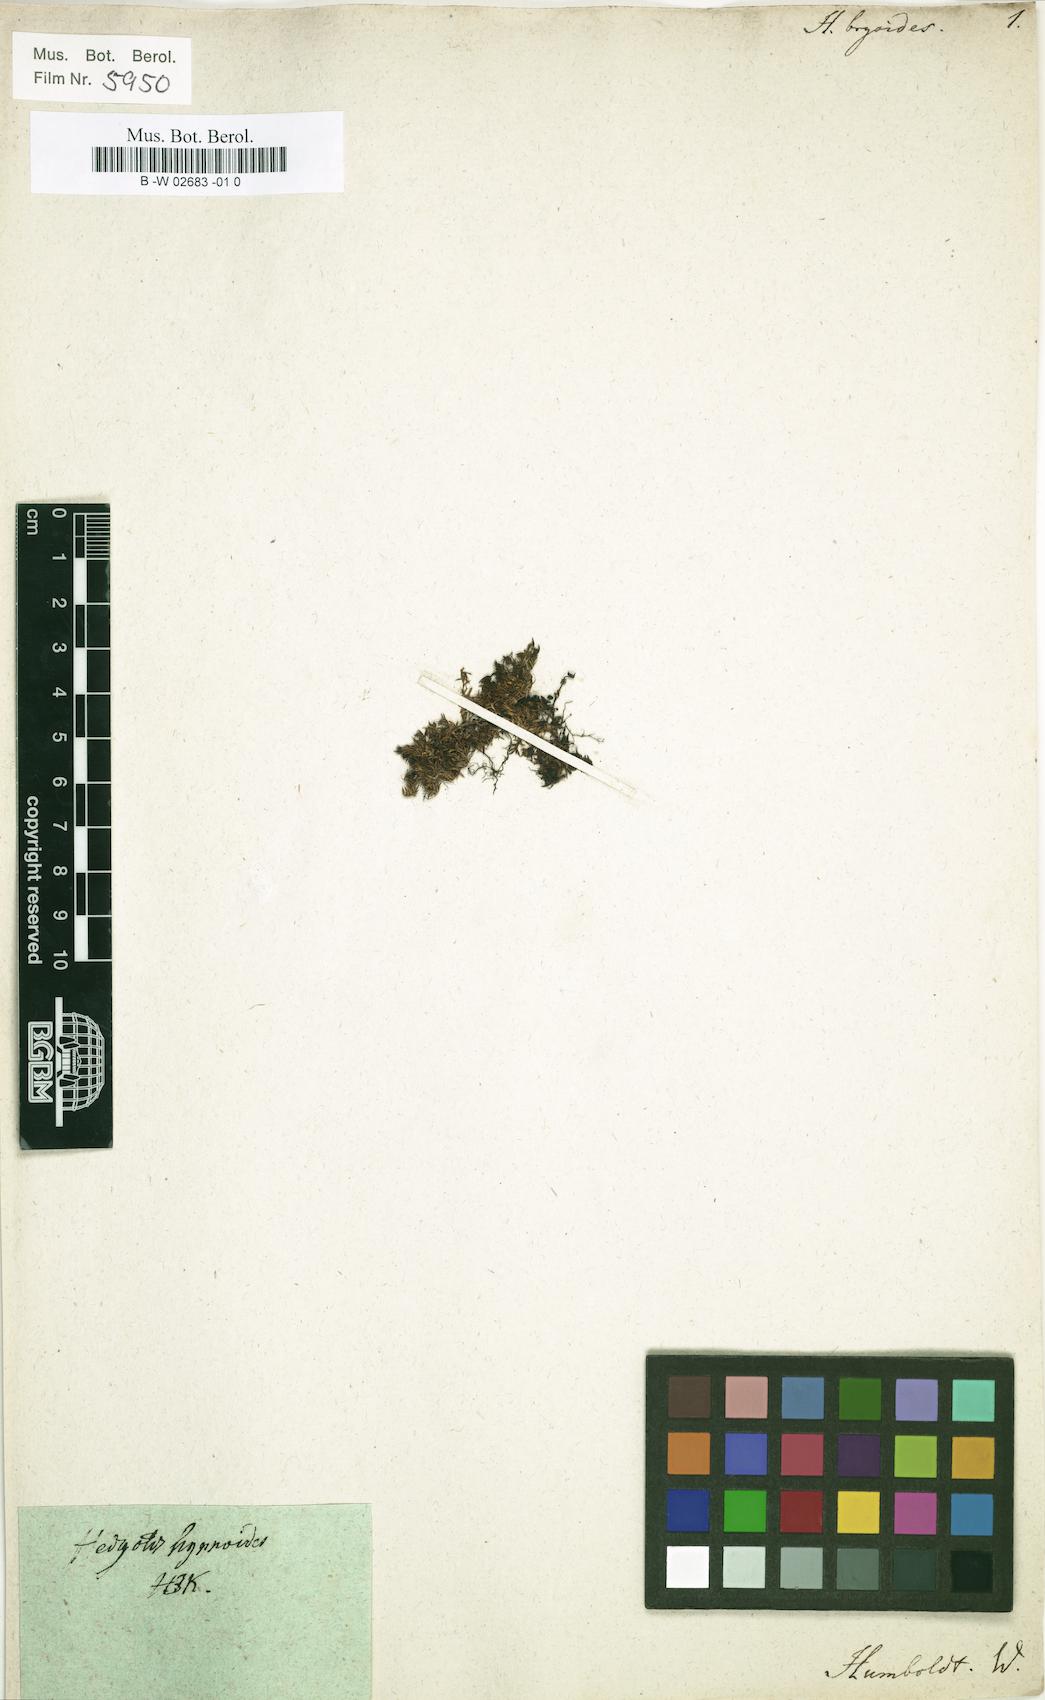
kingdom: Plantae
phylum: Tracheophyta
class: Magnoliopsida
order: Gentianales
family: Rubiaceae
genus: Arcytophyllum
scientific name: Arcytophyllum filiforme
